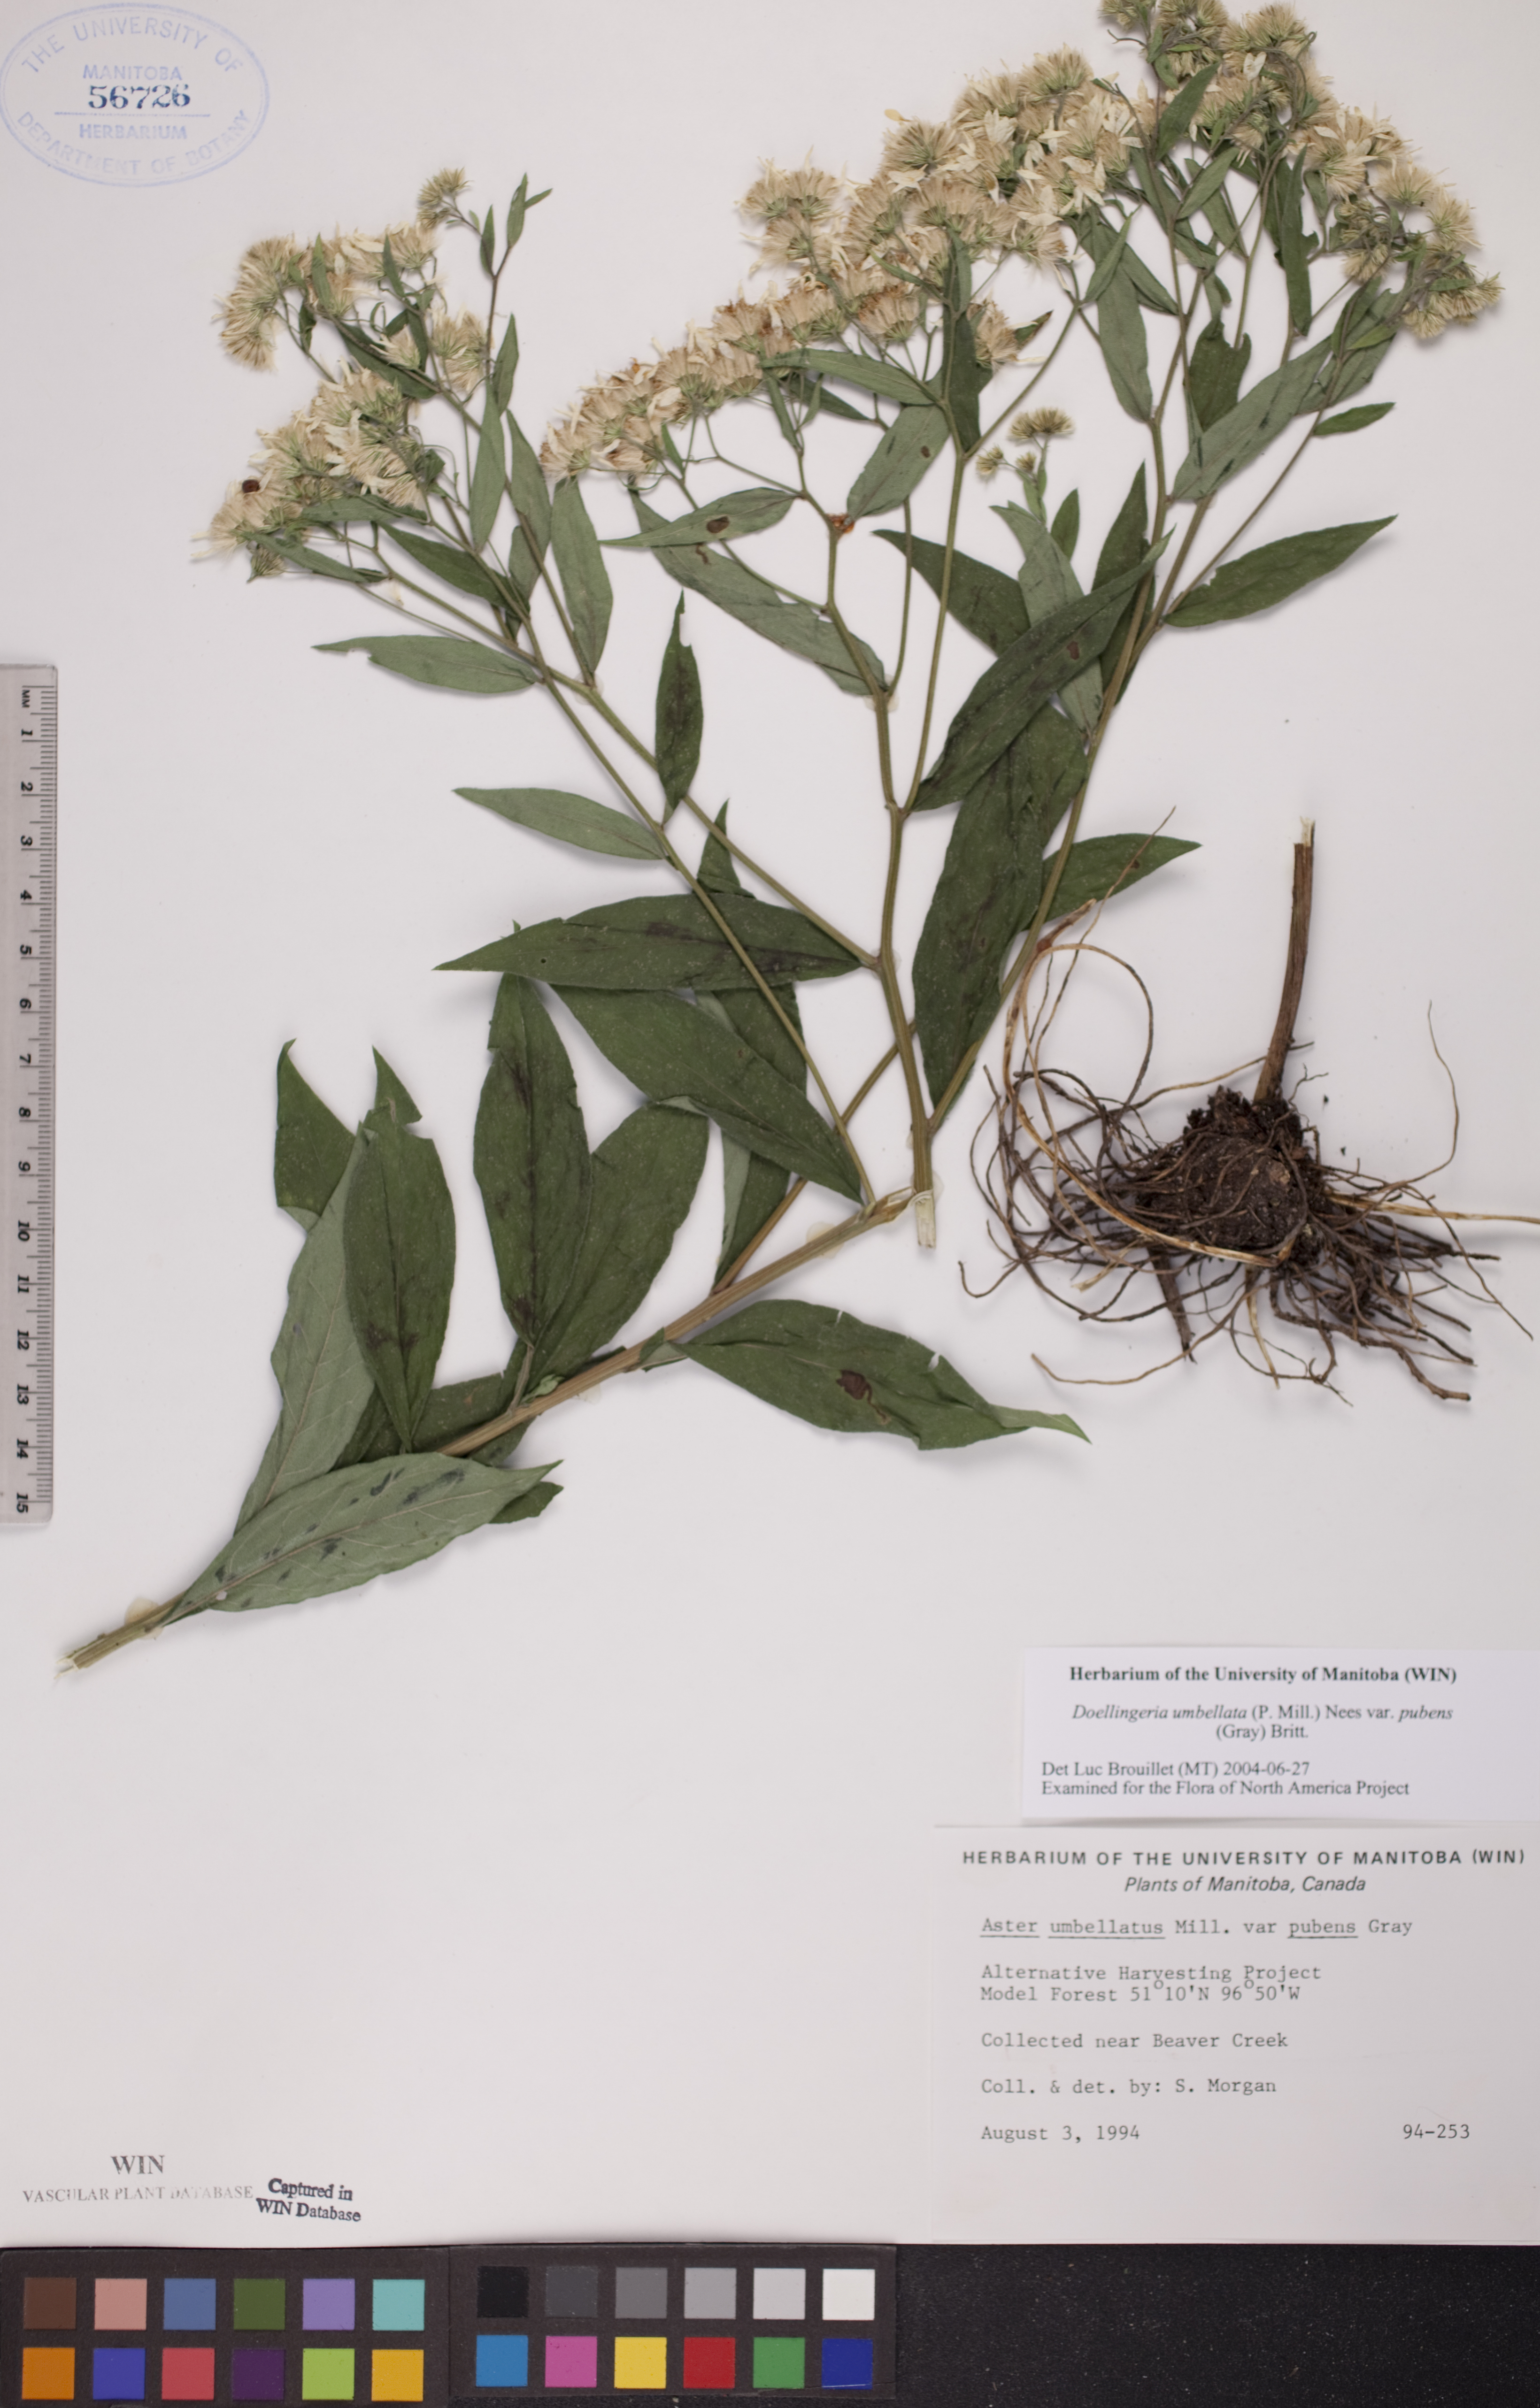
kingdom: Plantae
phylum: Tracheophyta
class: Magnoliopsida
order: Asterales
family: Asteraceae
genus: Doellingeria
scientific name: Doellingeria umbellata
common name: Flat-top white aster
